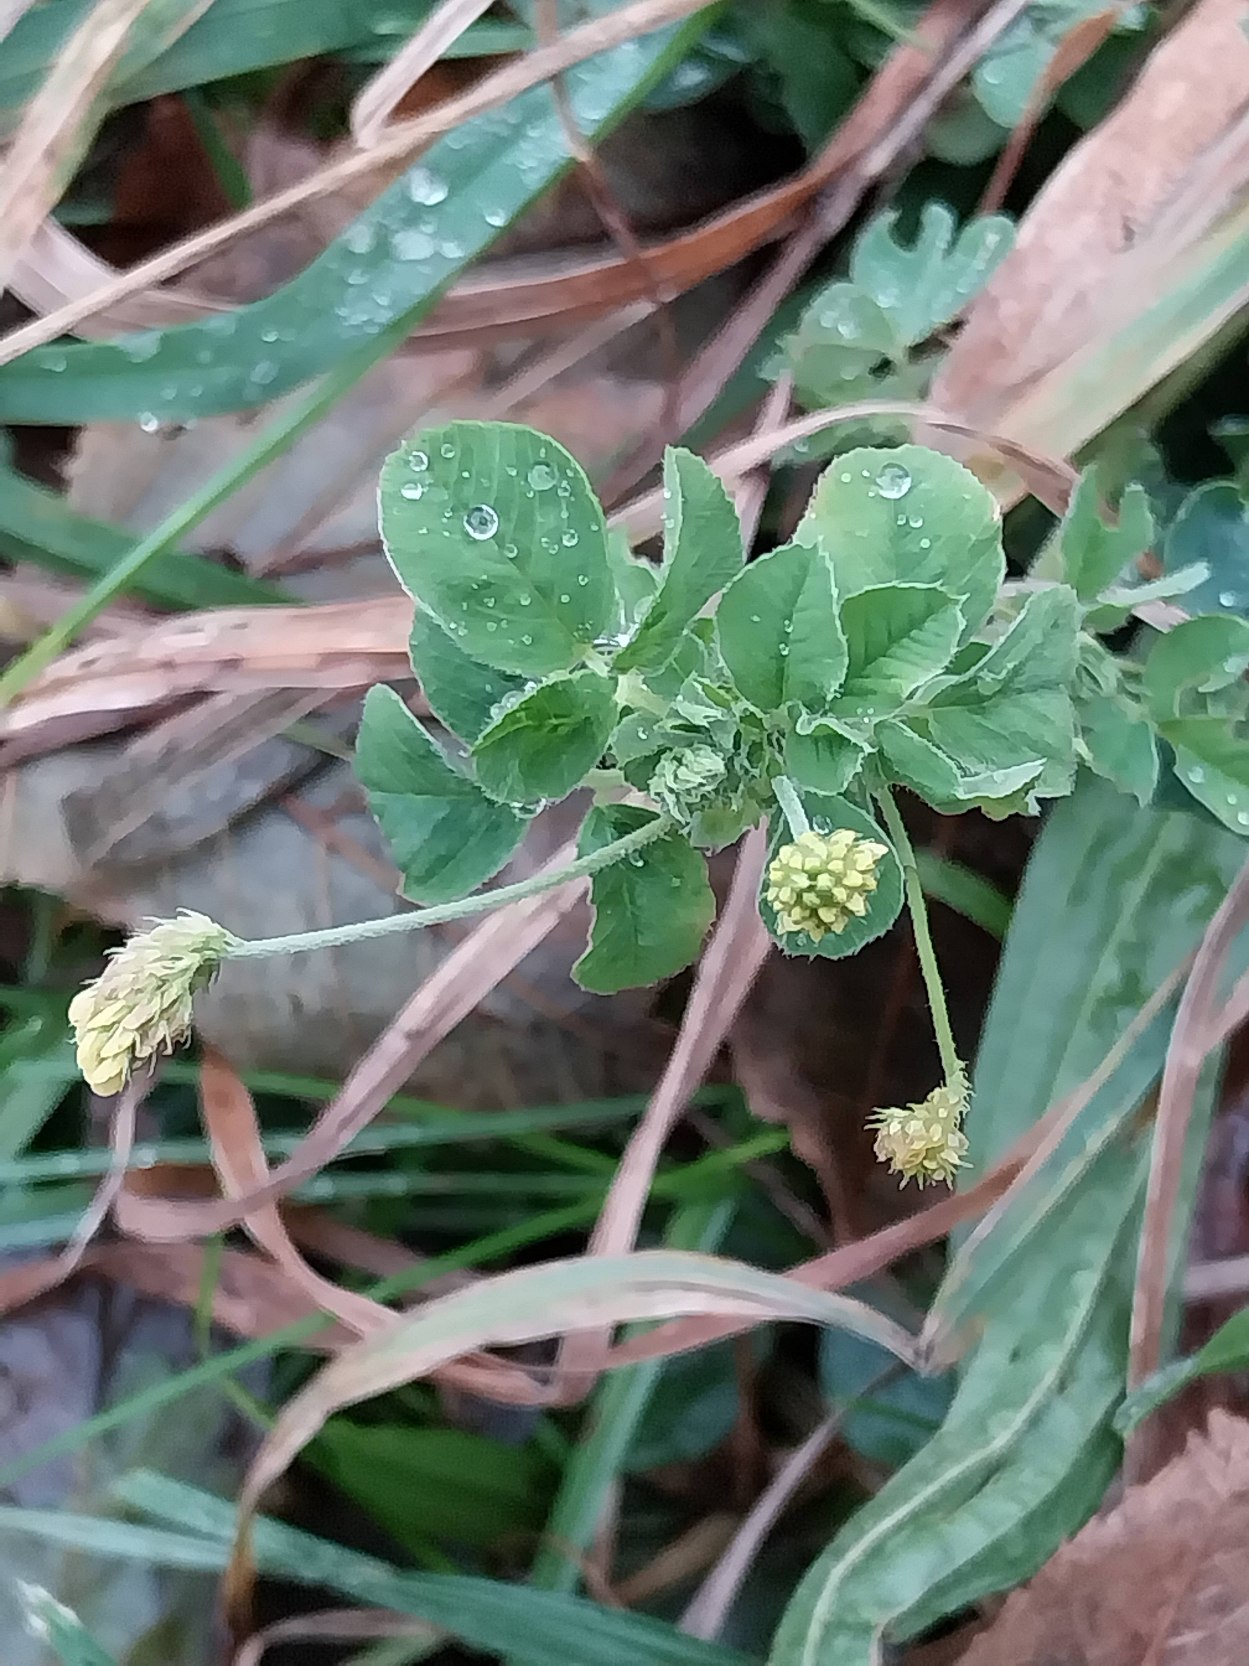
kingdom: Plantae
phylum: Tracheophyta
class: Magnoliopsida
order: Fabales
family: Fabaceae
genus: Medicago
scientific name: Medicago lupulina
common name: Humle-sneglebælg
